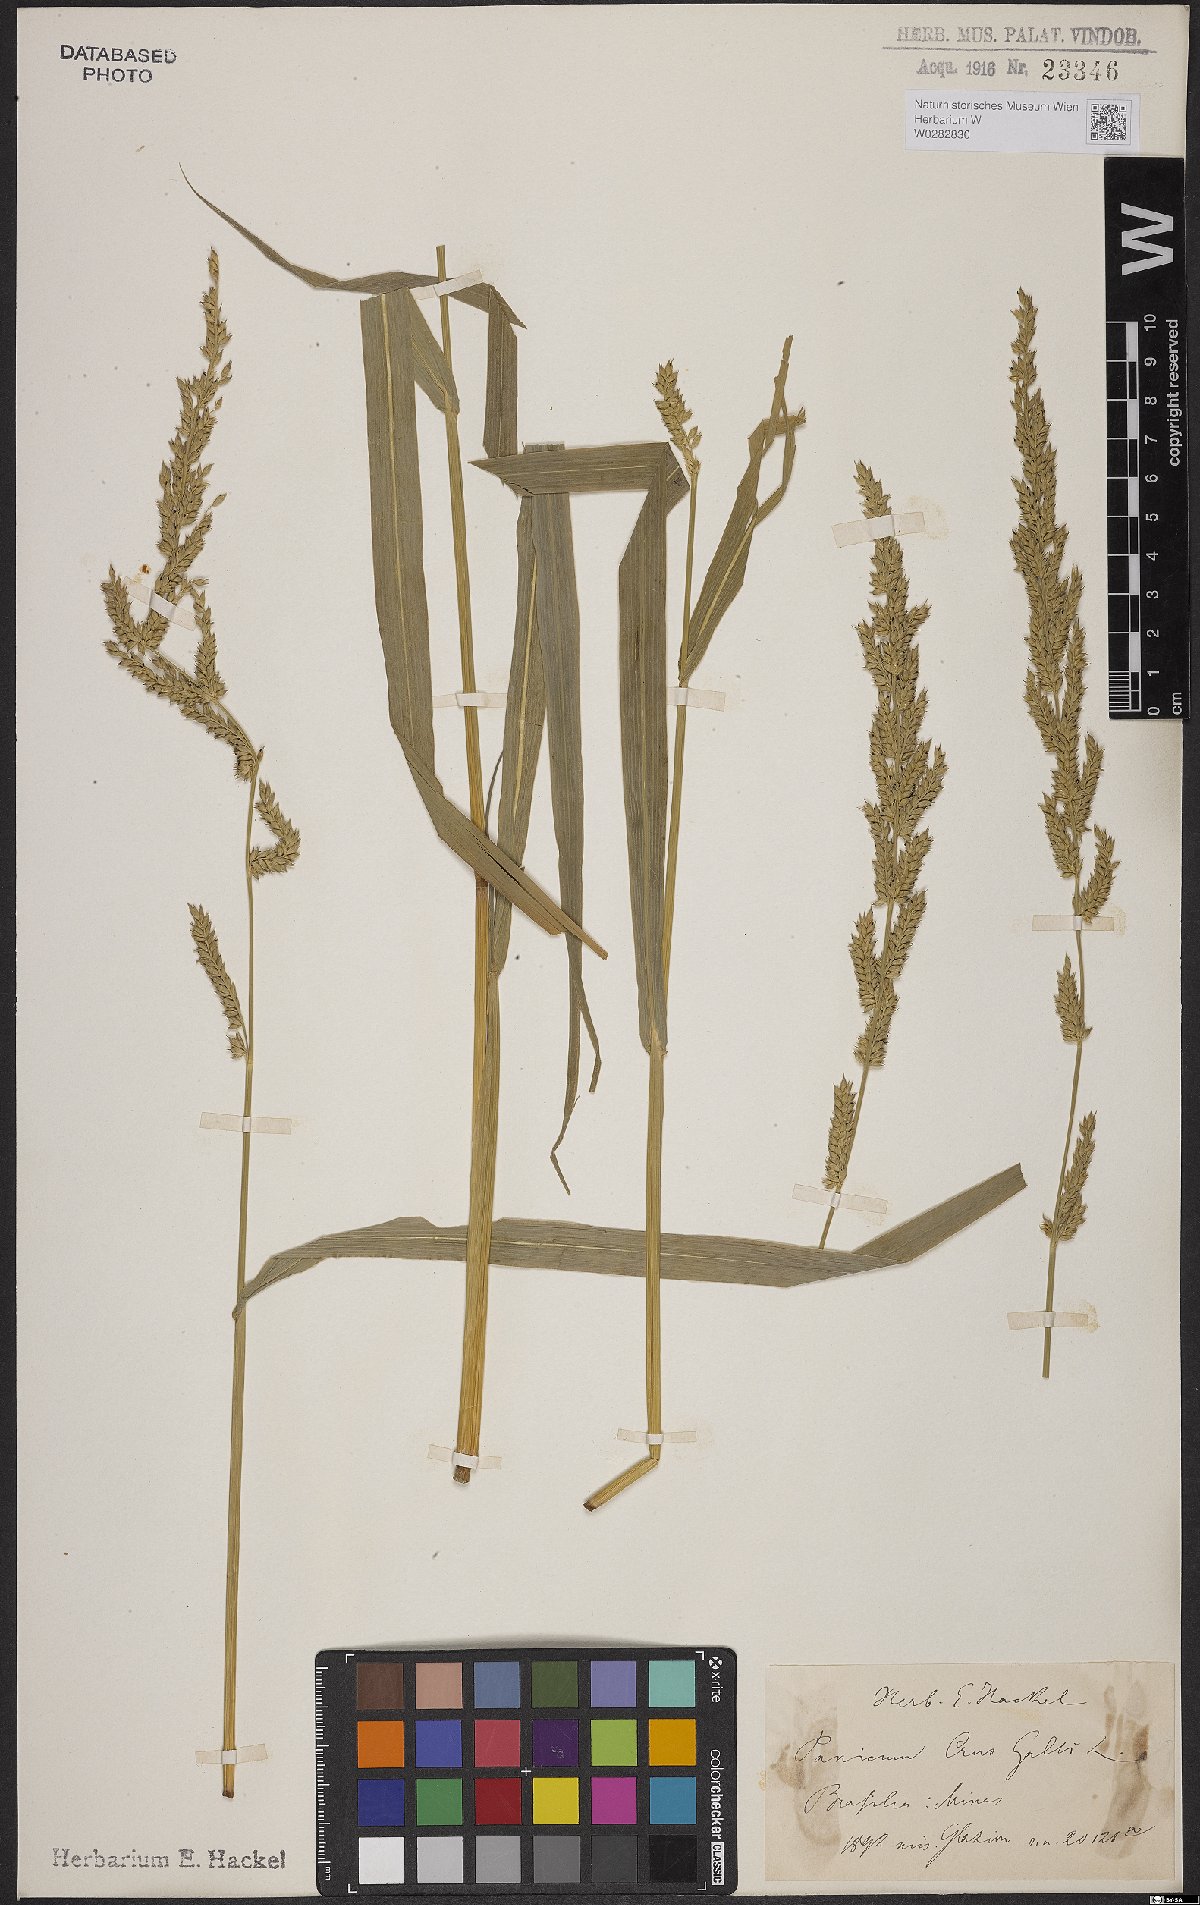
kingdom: Plantae
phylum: Tracheophyta
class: Liliopsida
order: Poales
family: Poaceae
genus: Echinochloa
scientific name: Echinochloa stagnina
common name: Burgu grass
